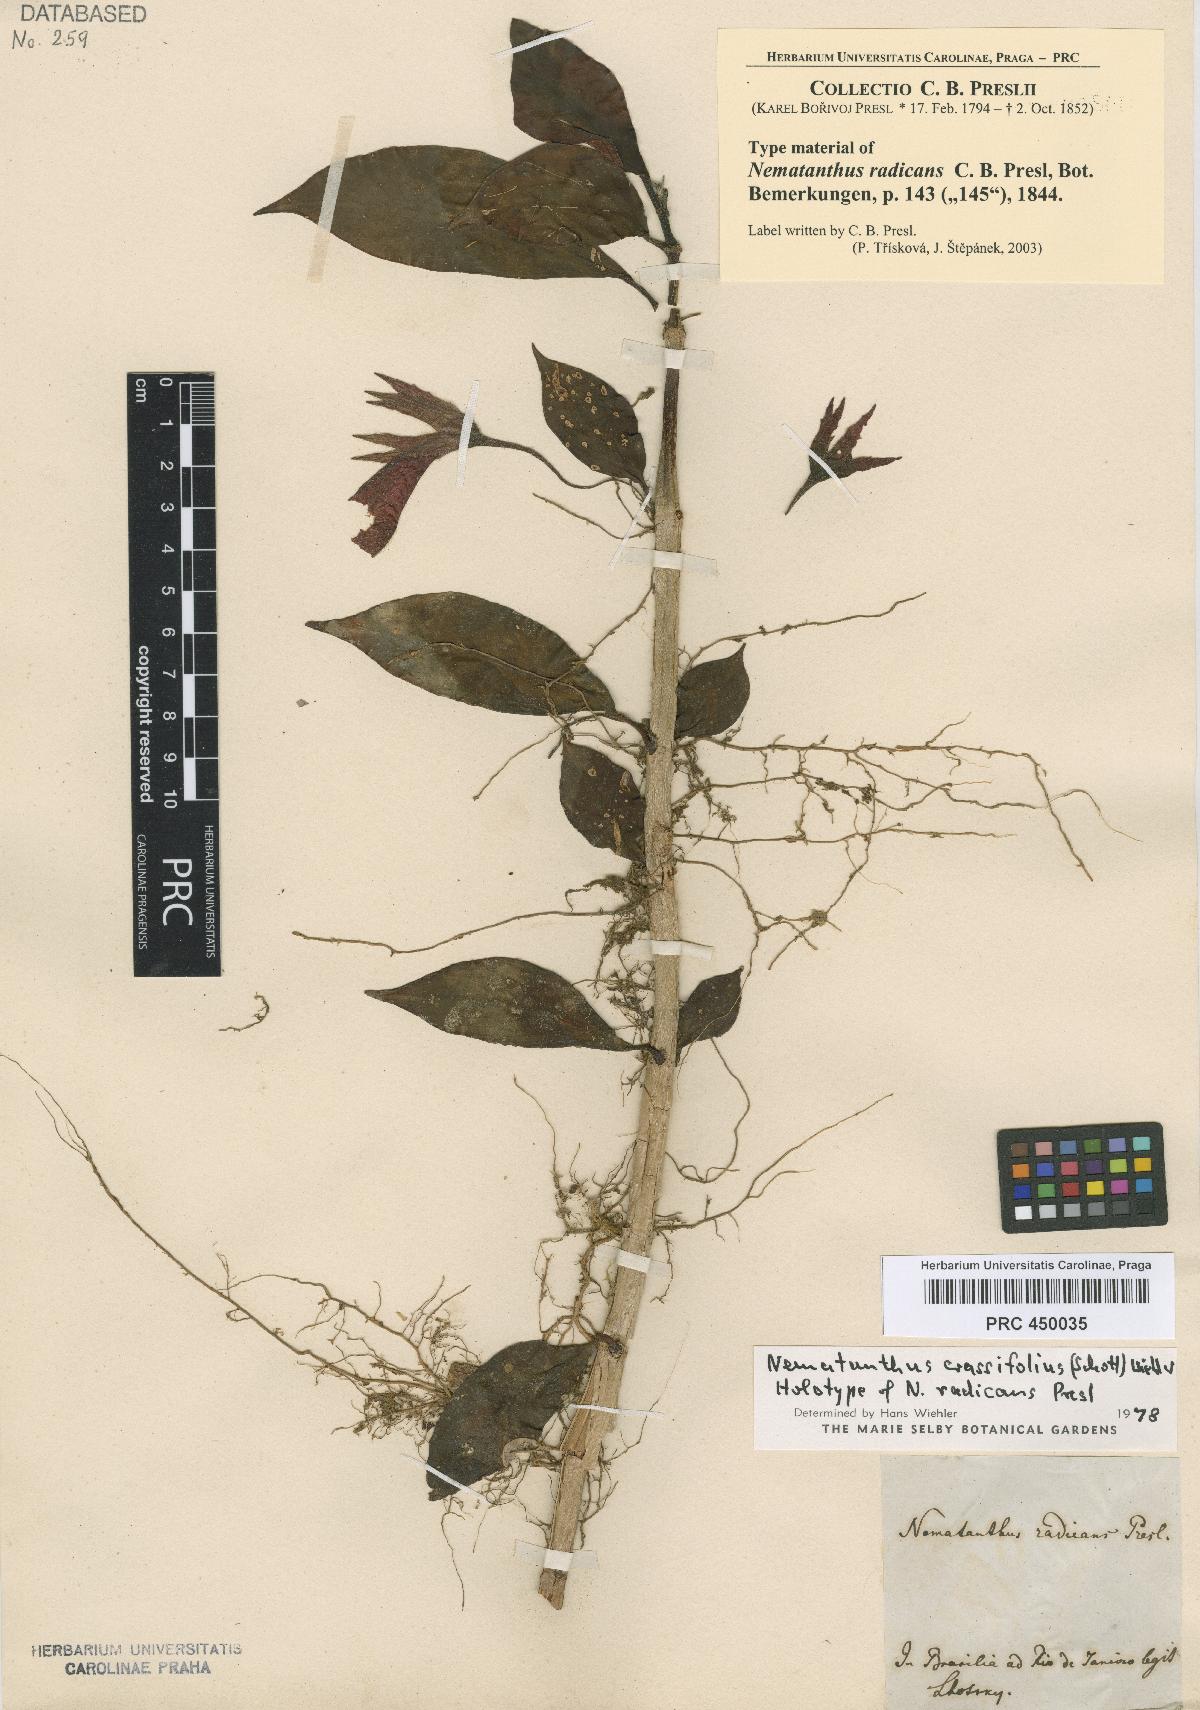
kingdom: Plantae
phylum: Tracheophyta
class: Magnoliopsida
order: Lamiales
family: Gesneriaceae
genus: Nematanthus
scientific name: Nematanthus crassifolius
